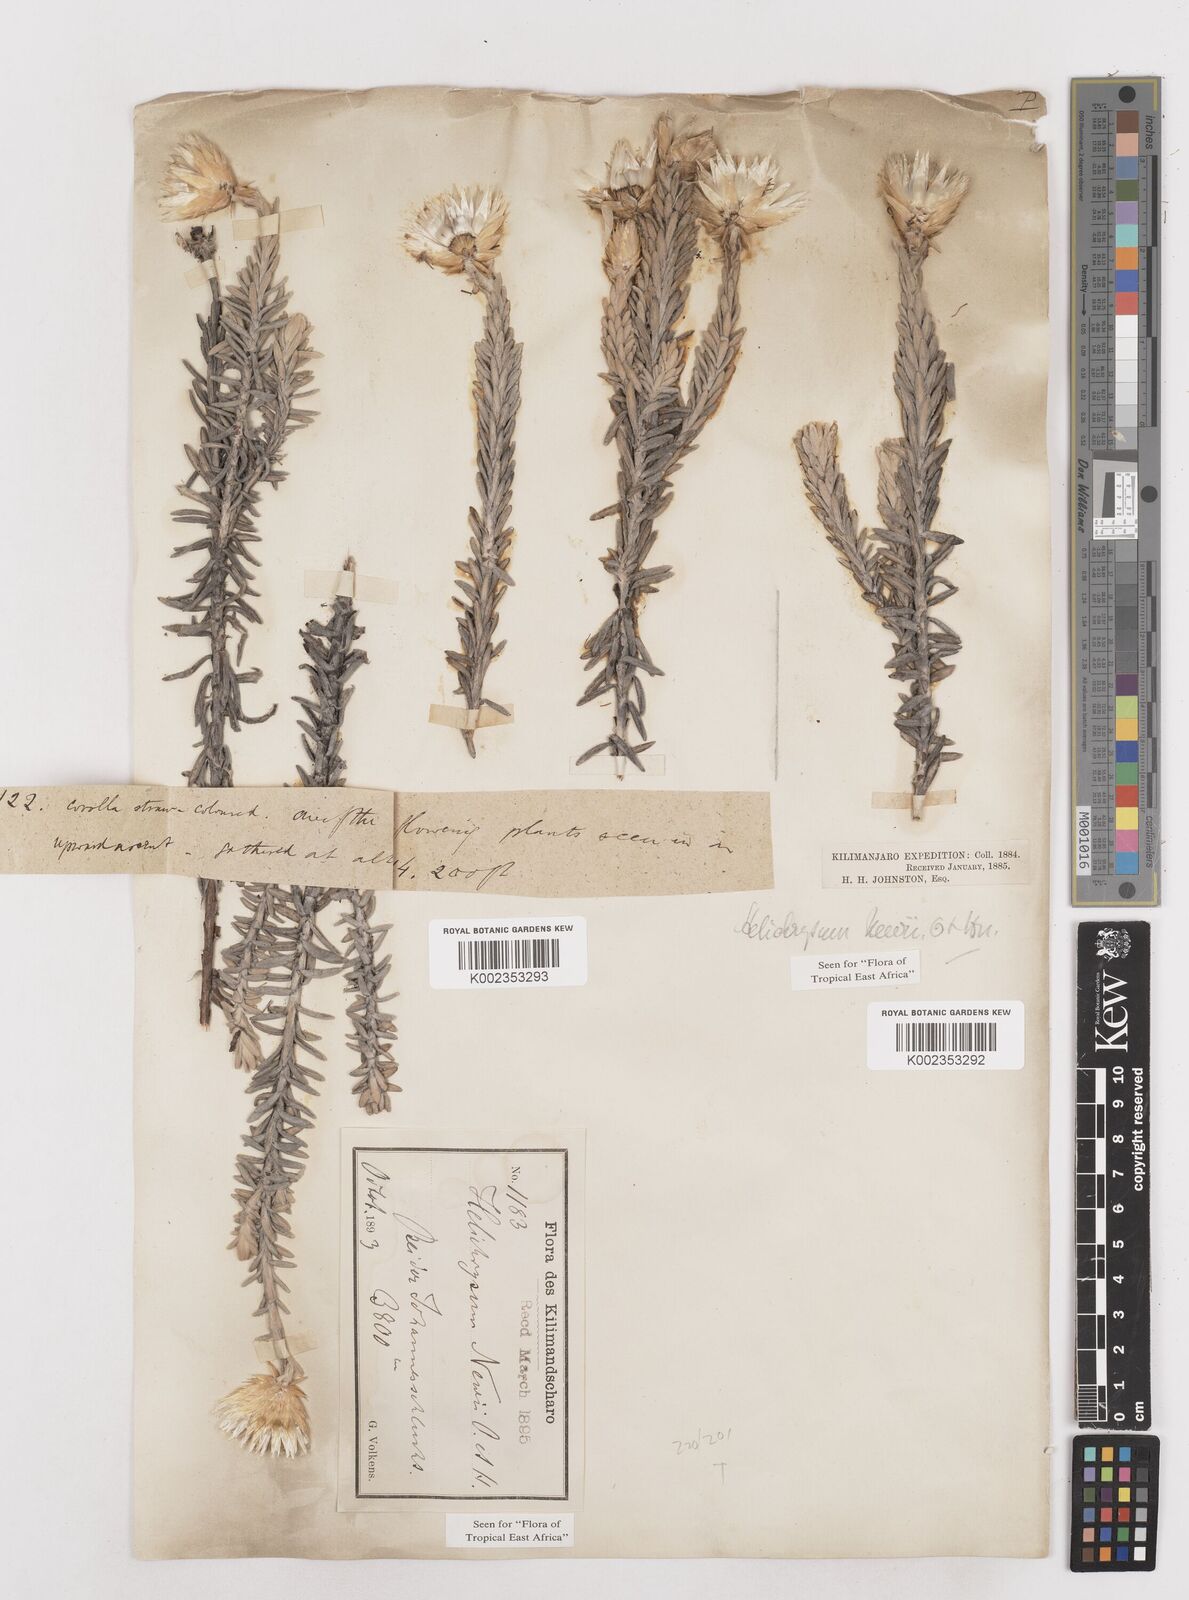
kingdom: Plantae
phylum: Tracheophyta
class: Magnoliopsida
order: Asterales
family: Asteraceae
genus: Helichrysum
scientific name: Helichrysum newii
